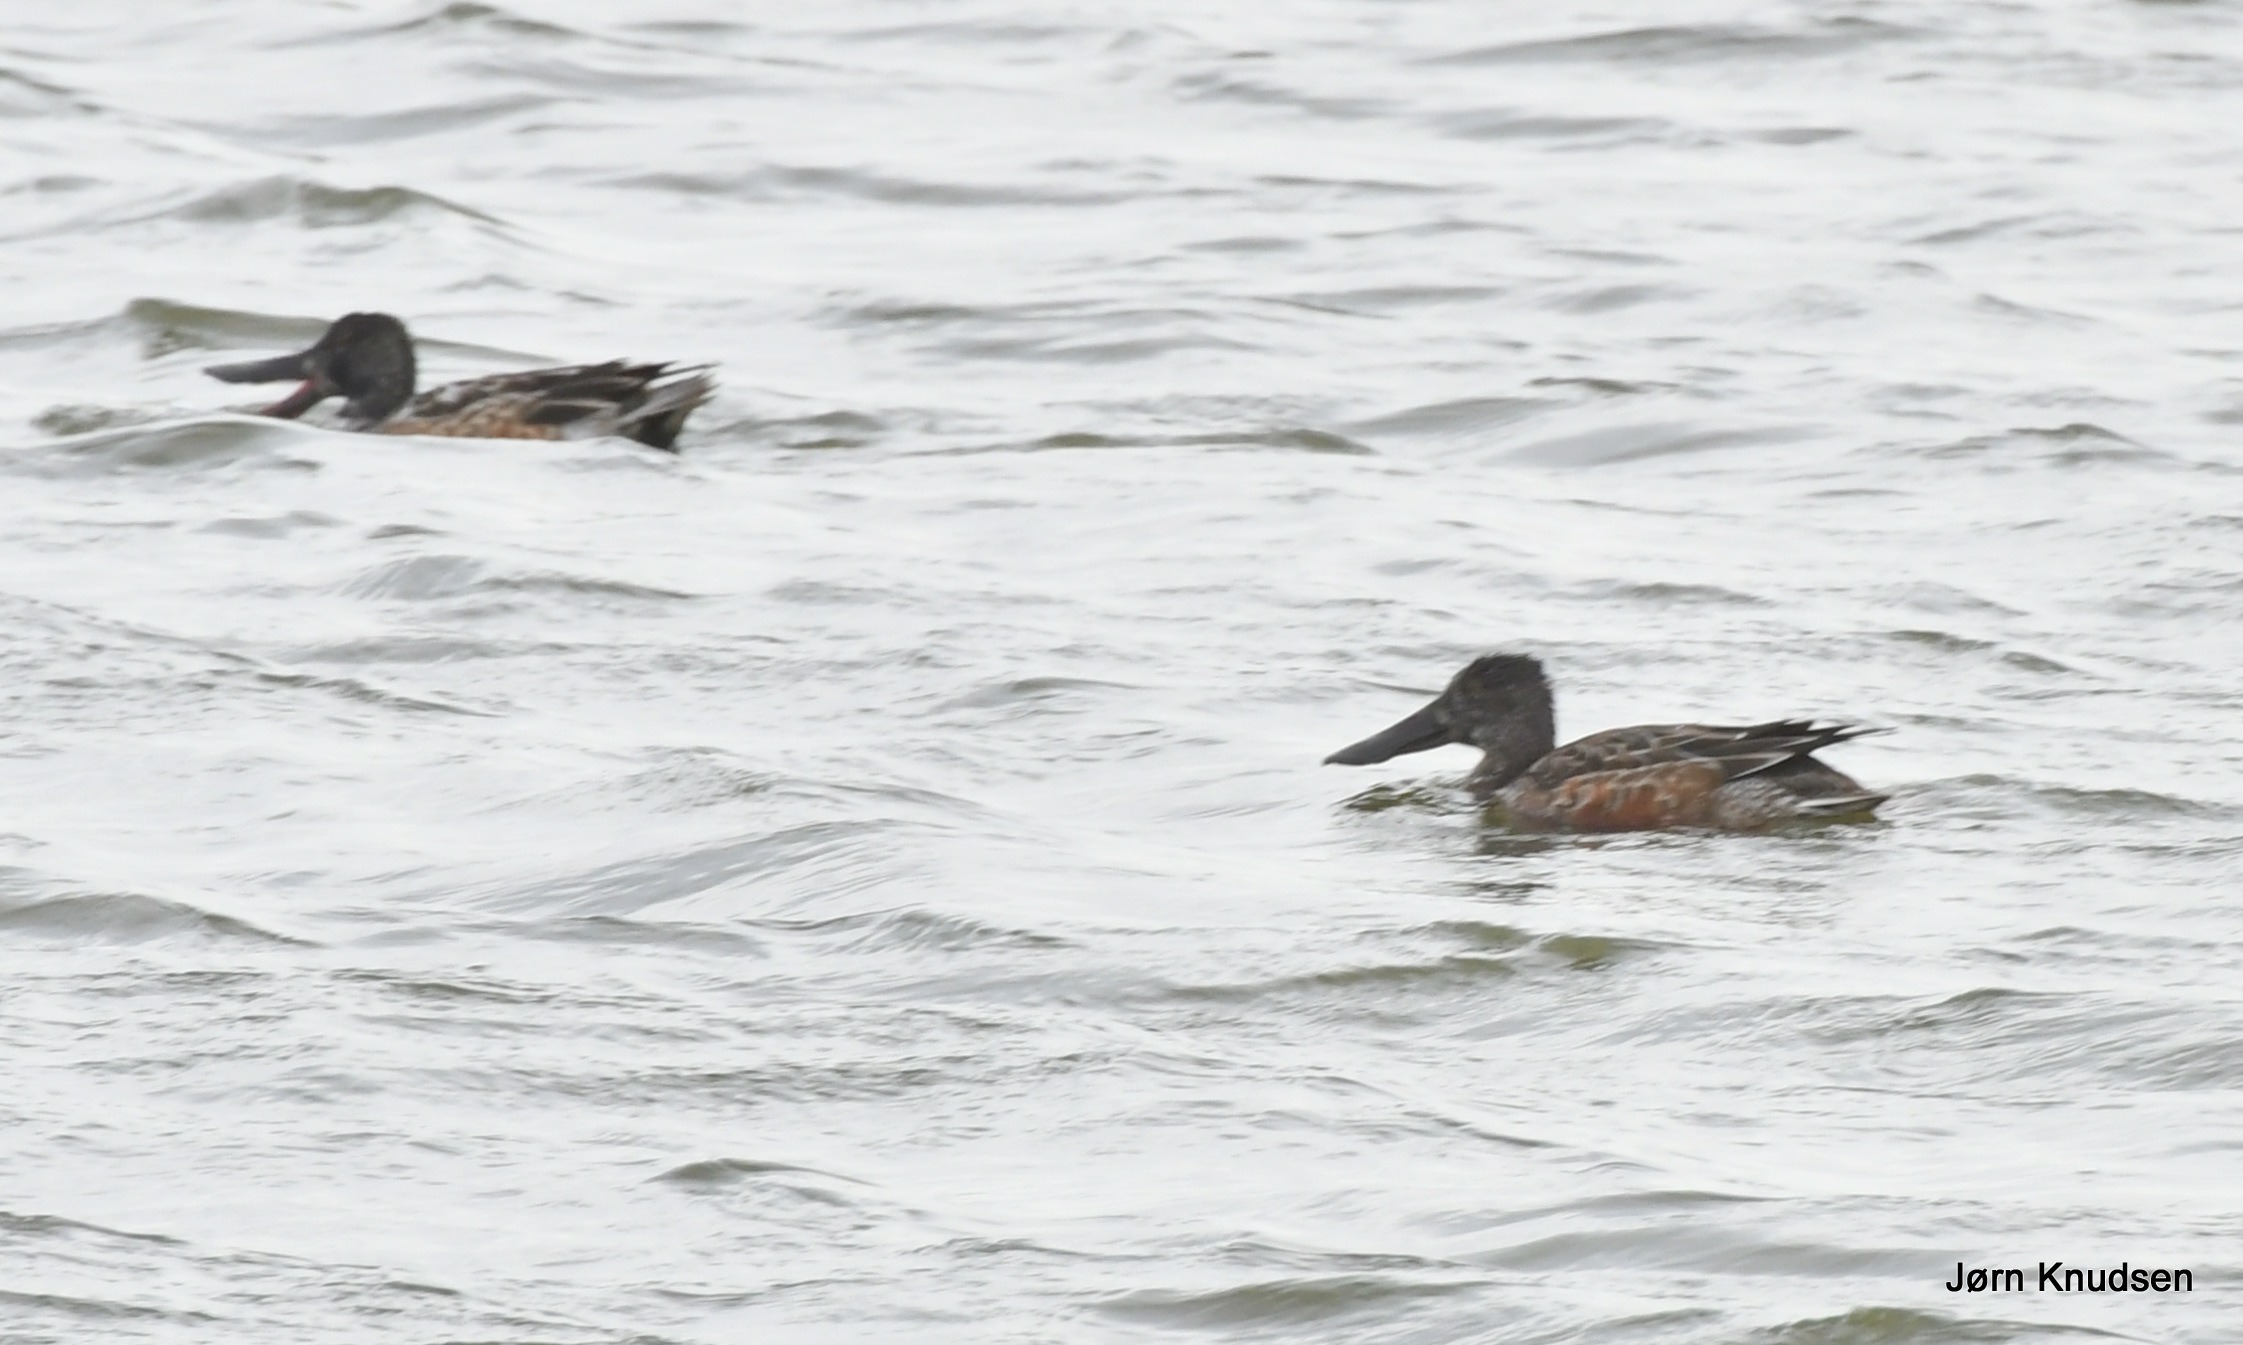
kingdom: Animalia
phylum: Chordata
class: Aves
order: Anseriformes
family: Anatidae
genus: Spatula
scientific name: Spatula clypeata
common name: Skeand
